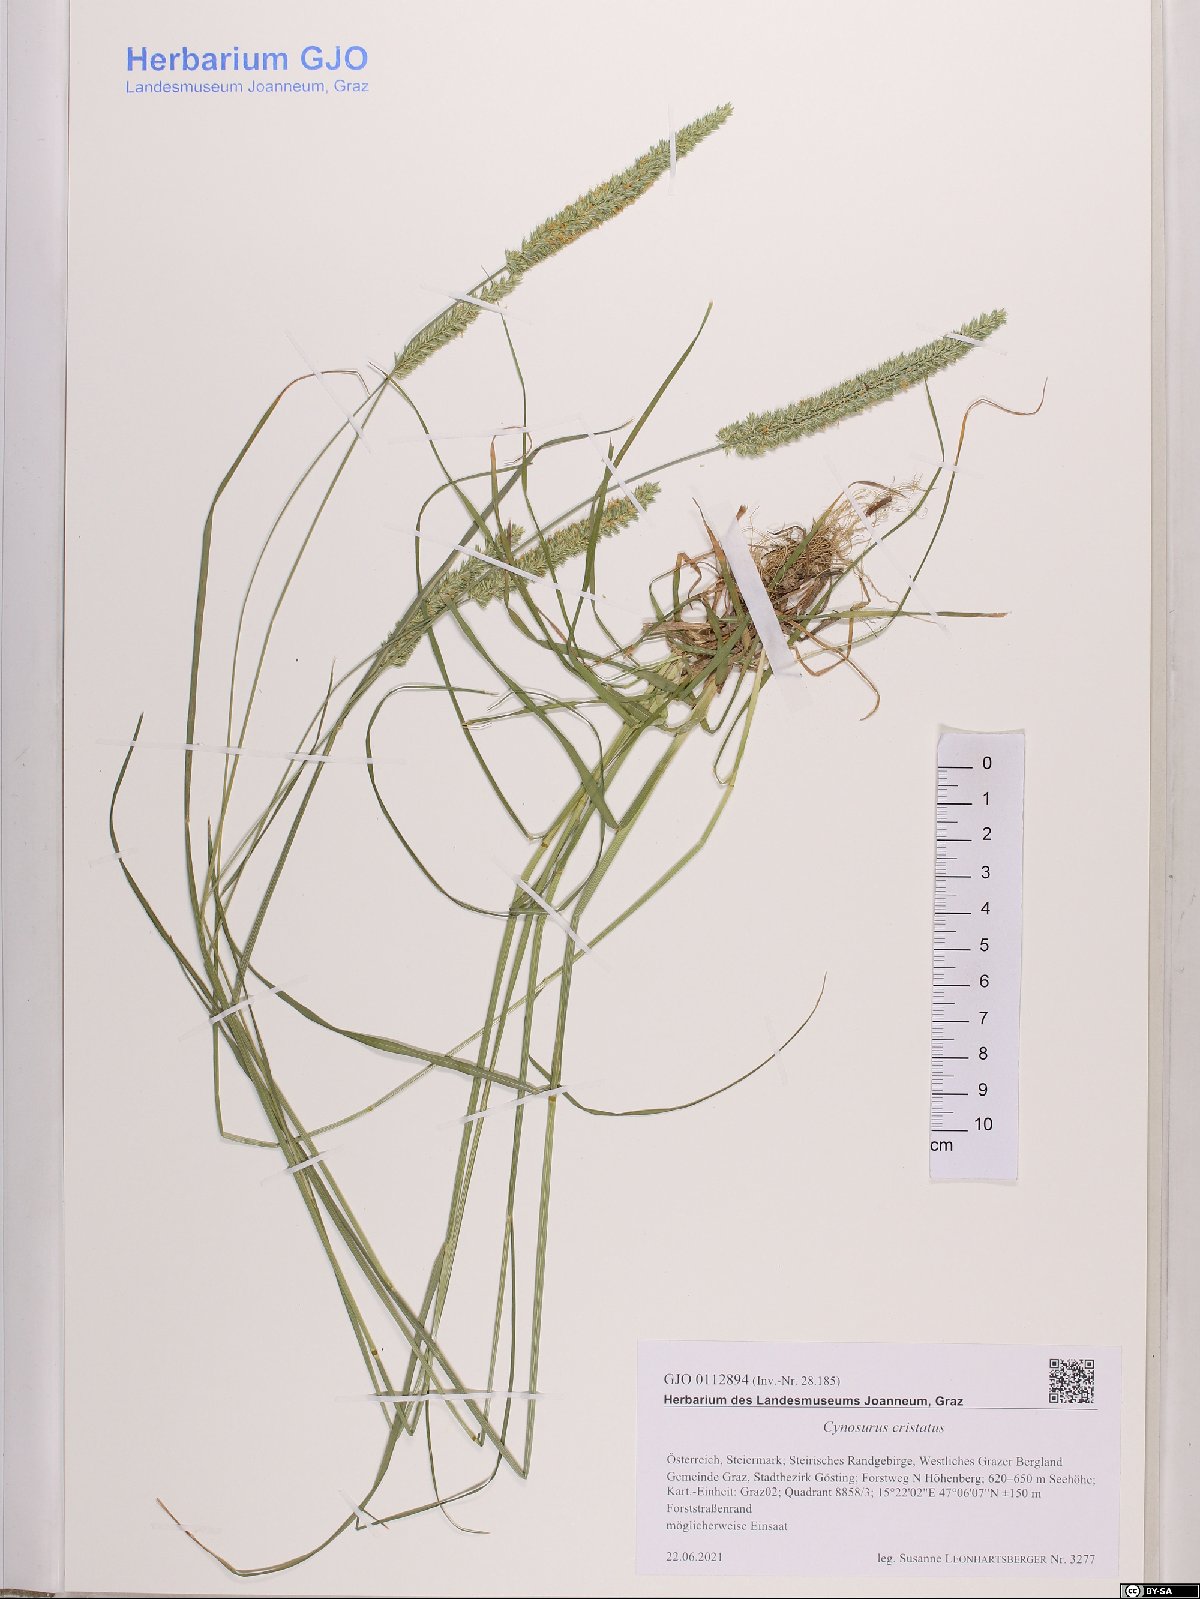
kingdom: Plantae
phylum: Tracheophyta
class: Liliopsida
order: Poales
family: Poaceae
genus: Cynosurus
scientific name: Cynosurus cristatus
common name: Crested dog's-tail
